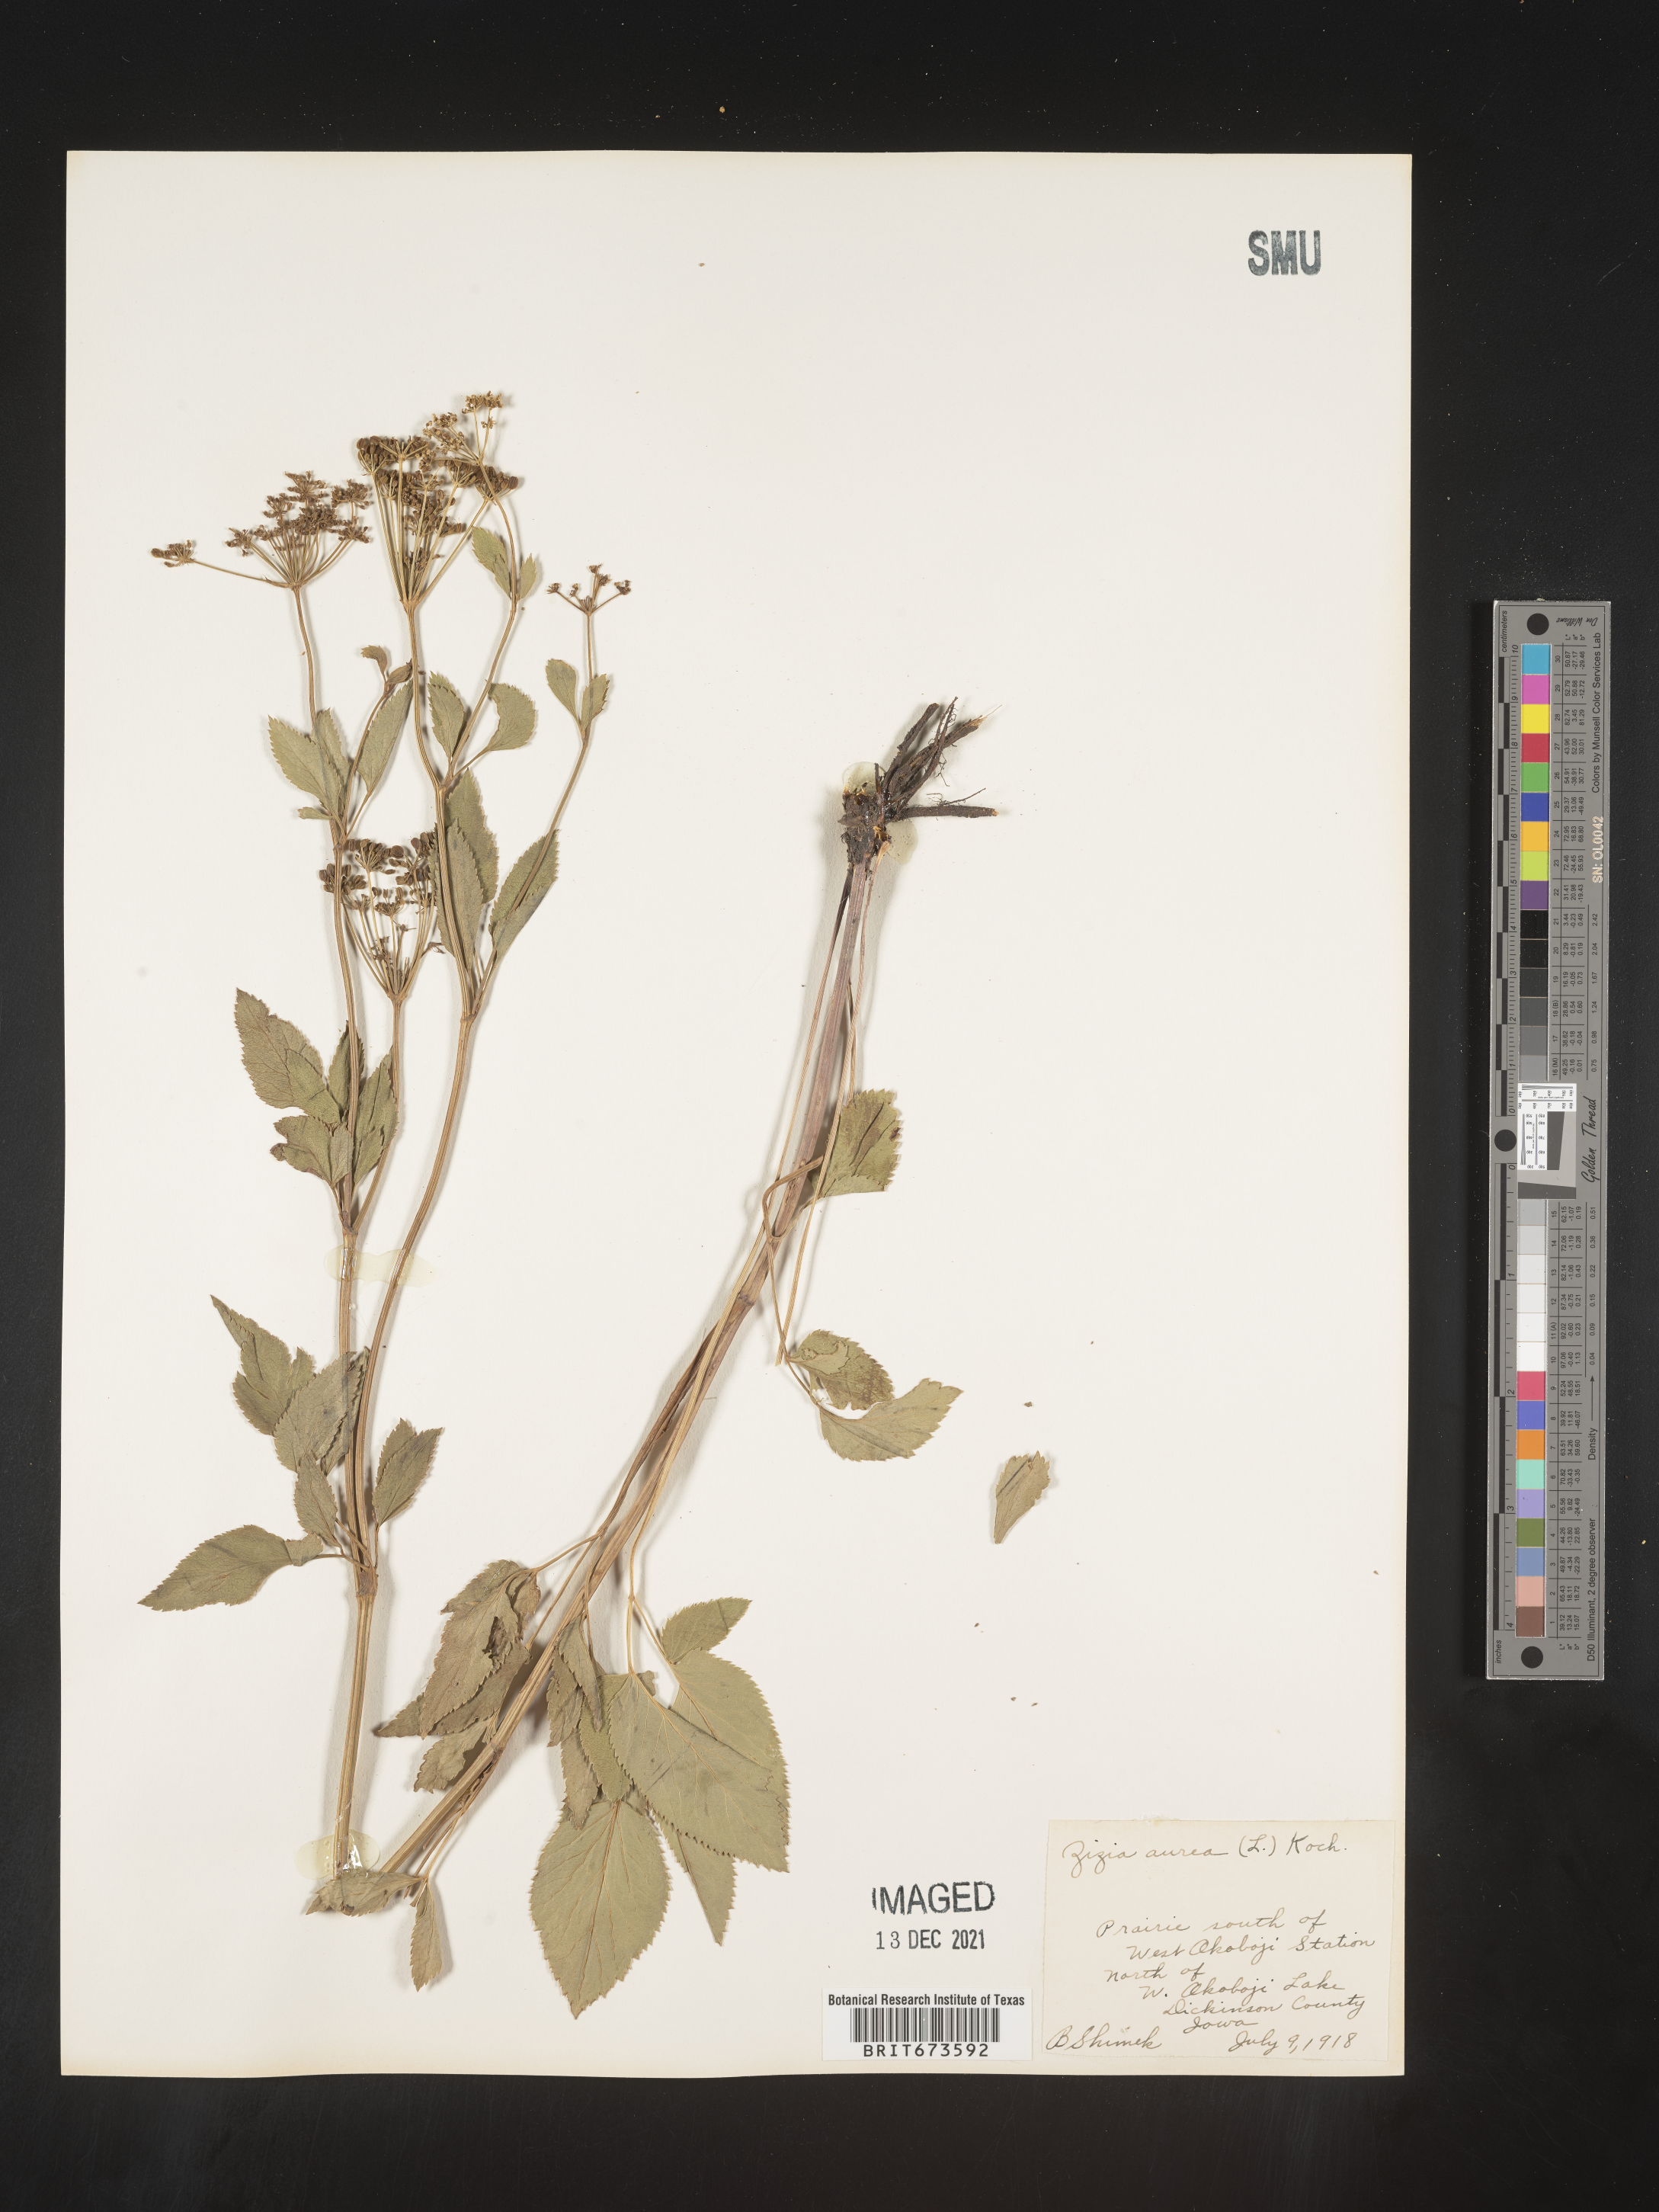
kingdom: Plantae
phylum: Tracheophyta
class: Magnoliopsida
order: Apiales
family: Apiaceae
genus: Zizia
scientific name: Zizia aurea
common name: Golden alexanders
